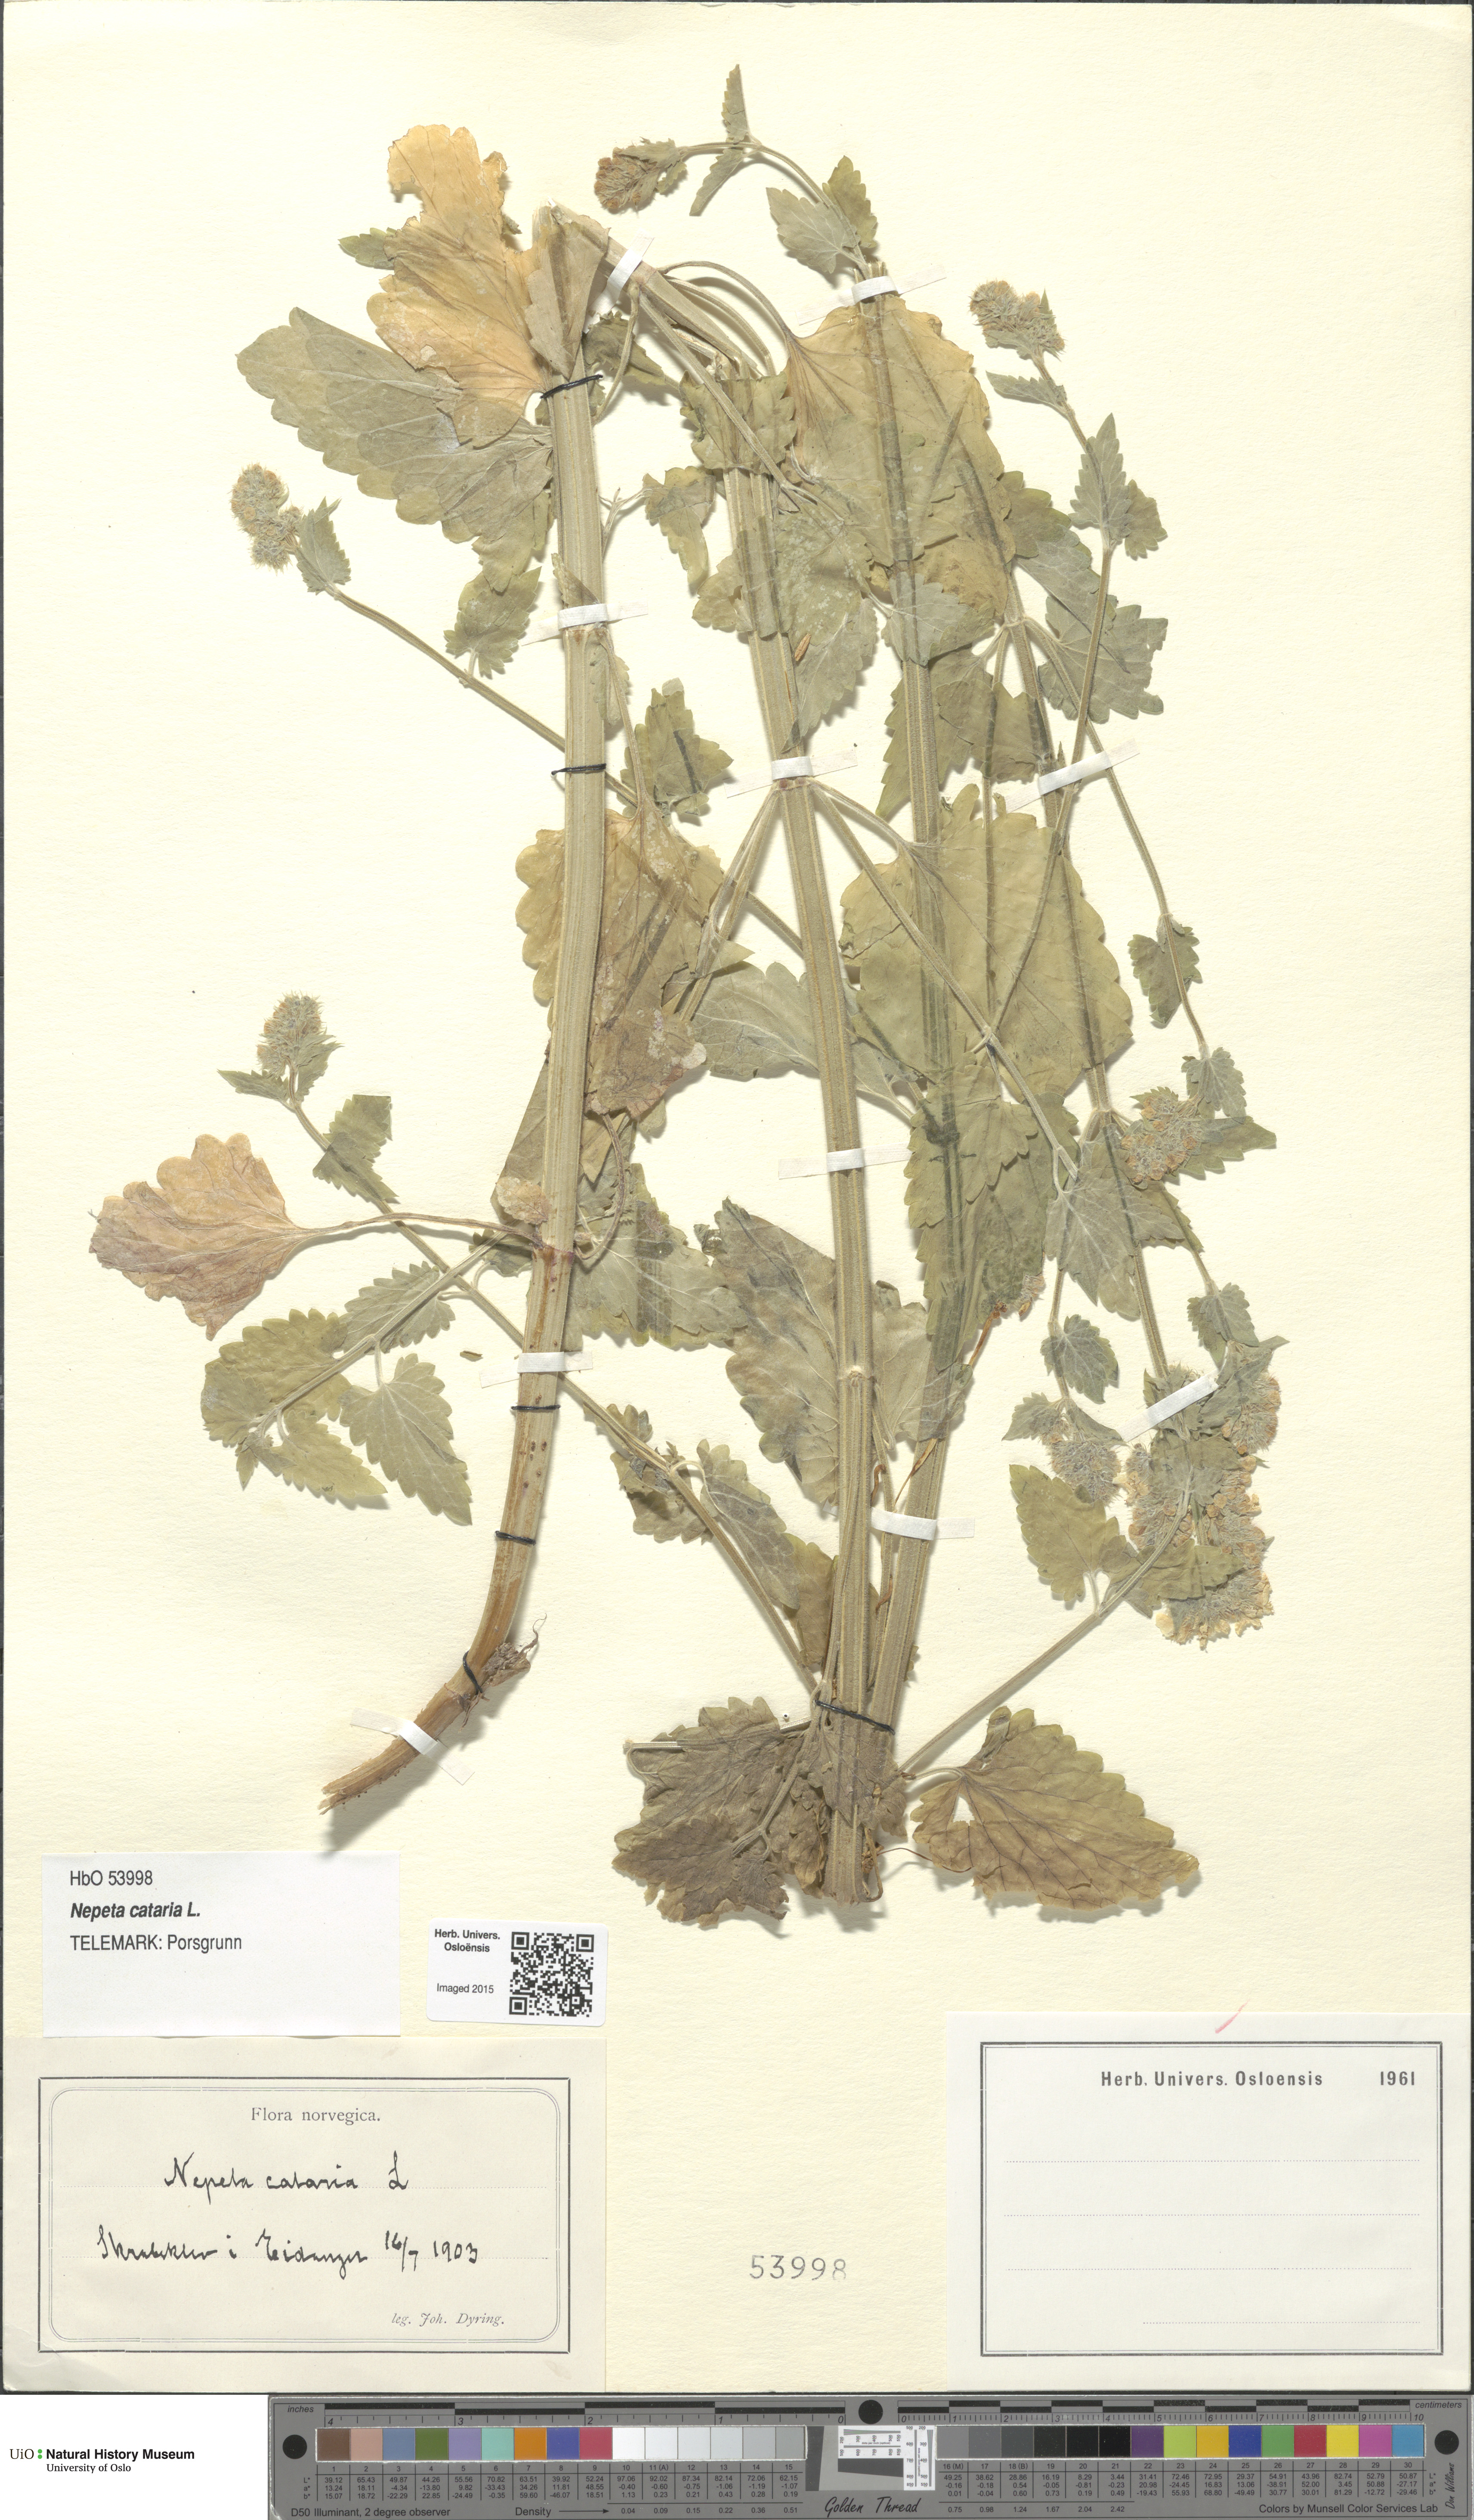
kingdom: Plantae
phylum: Tracheophyta
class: Magnoliopsida
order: Lamiales
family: Lamiaceae
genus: Nepeta
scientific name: Nepeta cataria
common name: Catnip
